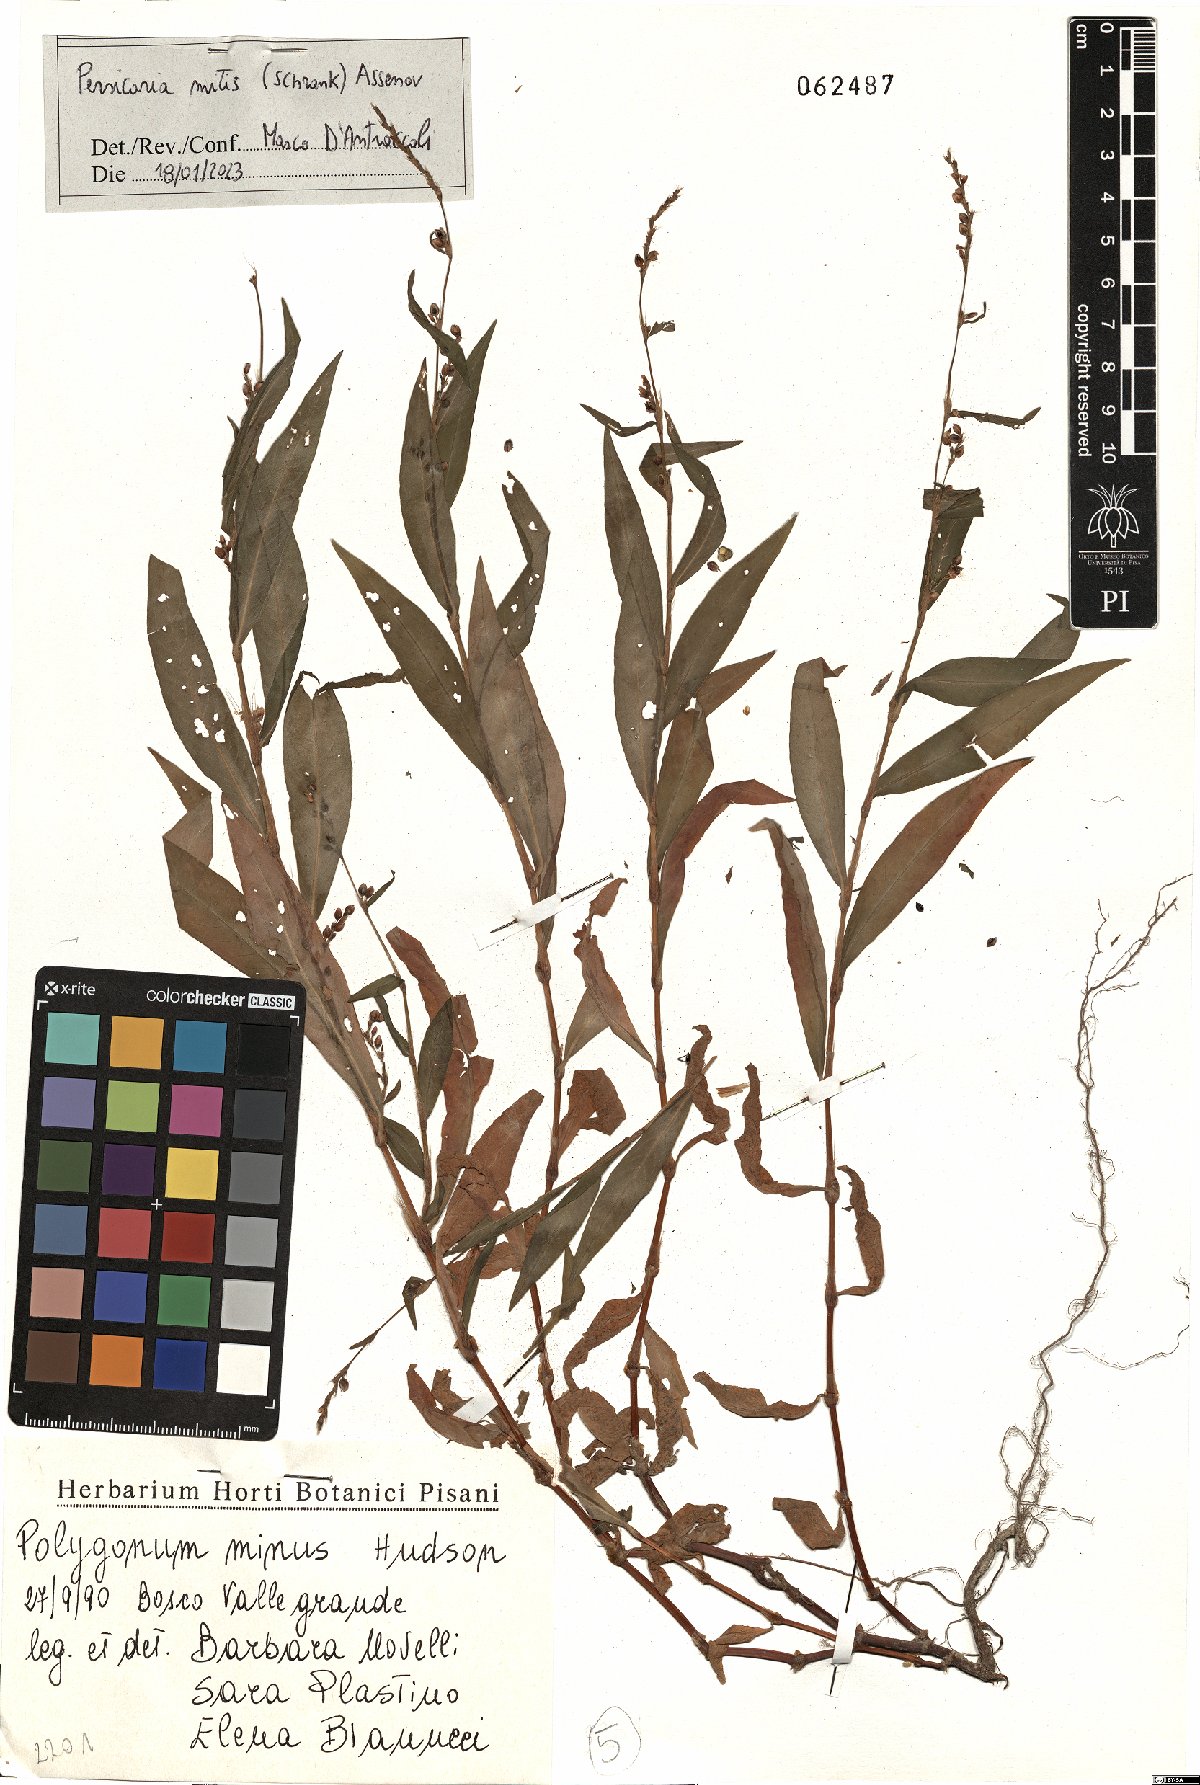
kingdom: Plantae
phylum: Tracheophyta
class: Magnoliopsida
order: Caryophyllales
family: Polygonaceae
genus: Persicaria
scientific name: Persicaria mitis
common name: Tasteless water-pepper
